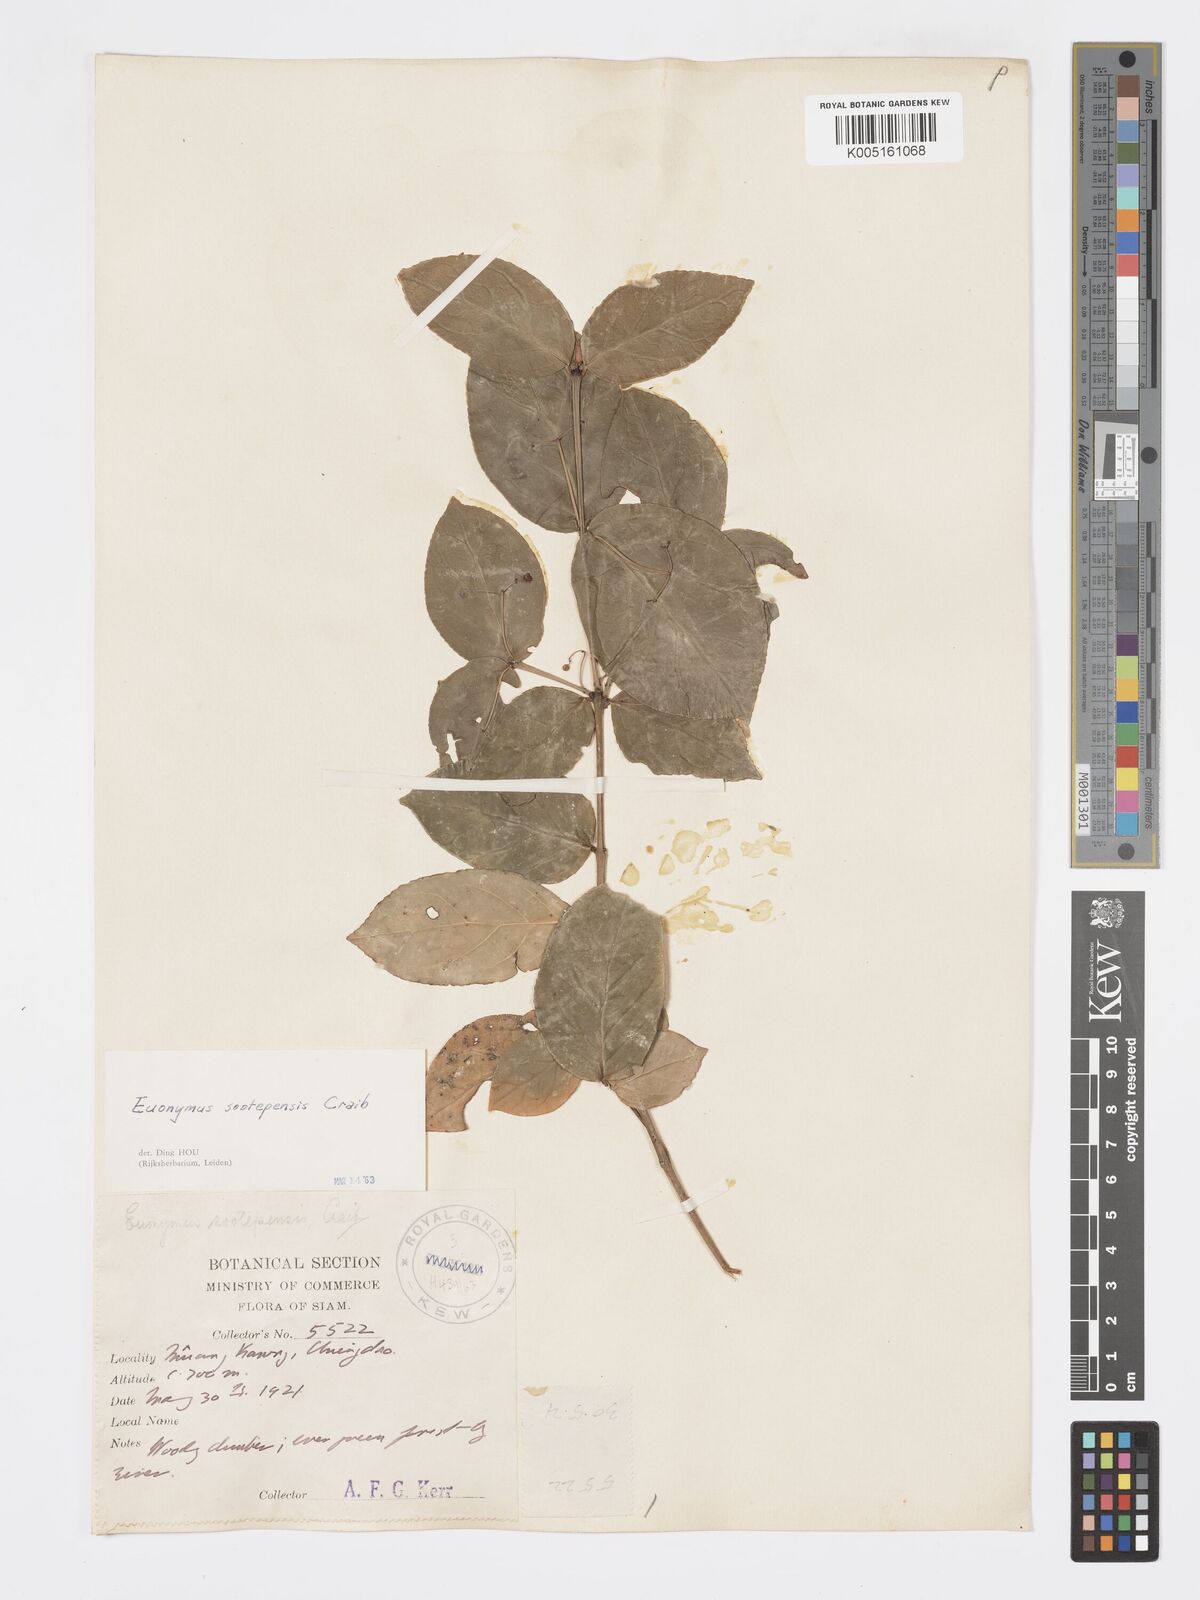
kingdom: Plantae
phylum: Tracheophyta
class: Magnoliopsida
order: Celastrales
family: Celastraceae
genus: Euonymus
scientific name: Euonymus sootepensis
